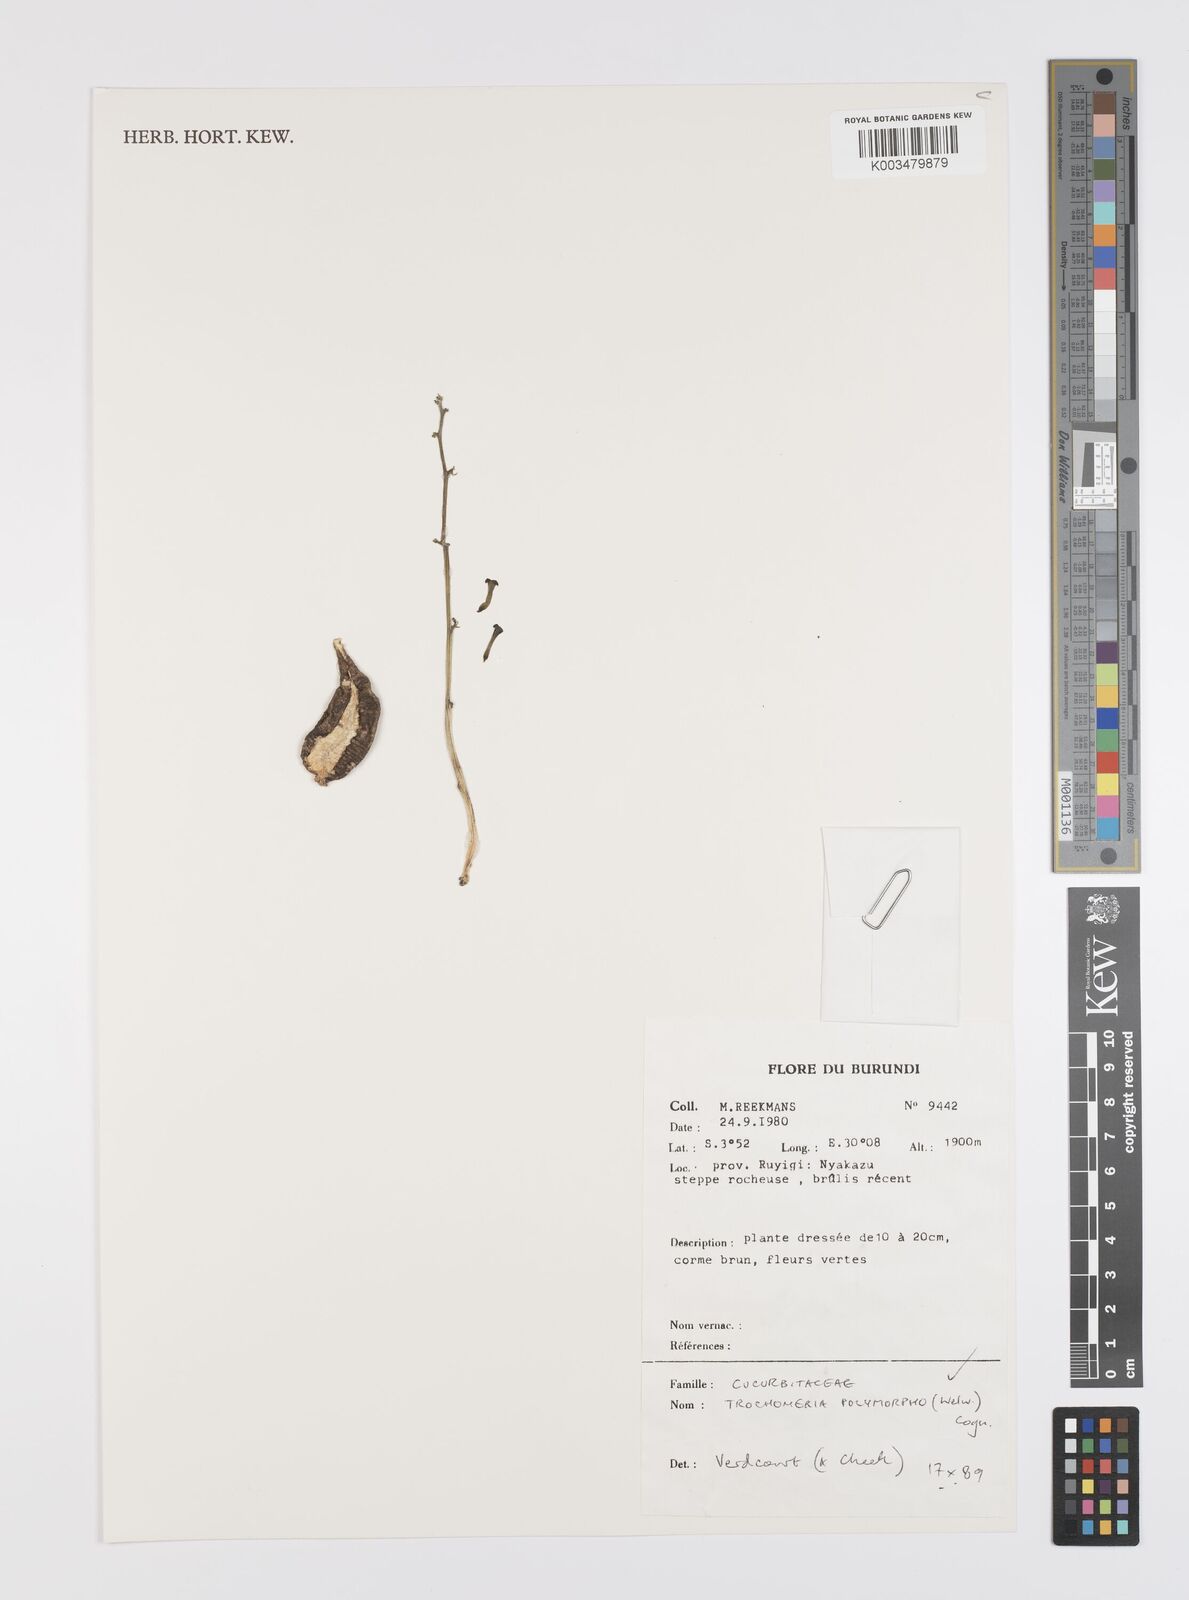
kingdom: Plantae
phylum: Tracheophyta
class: Magnoliopsida
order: Cucurbitales
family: Cucurbitaceae
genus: Trochomeria
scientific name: Trochomeria polymorpha
